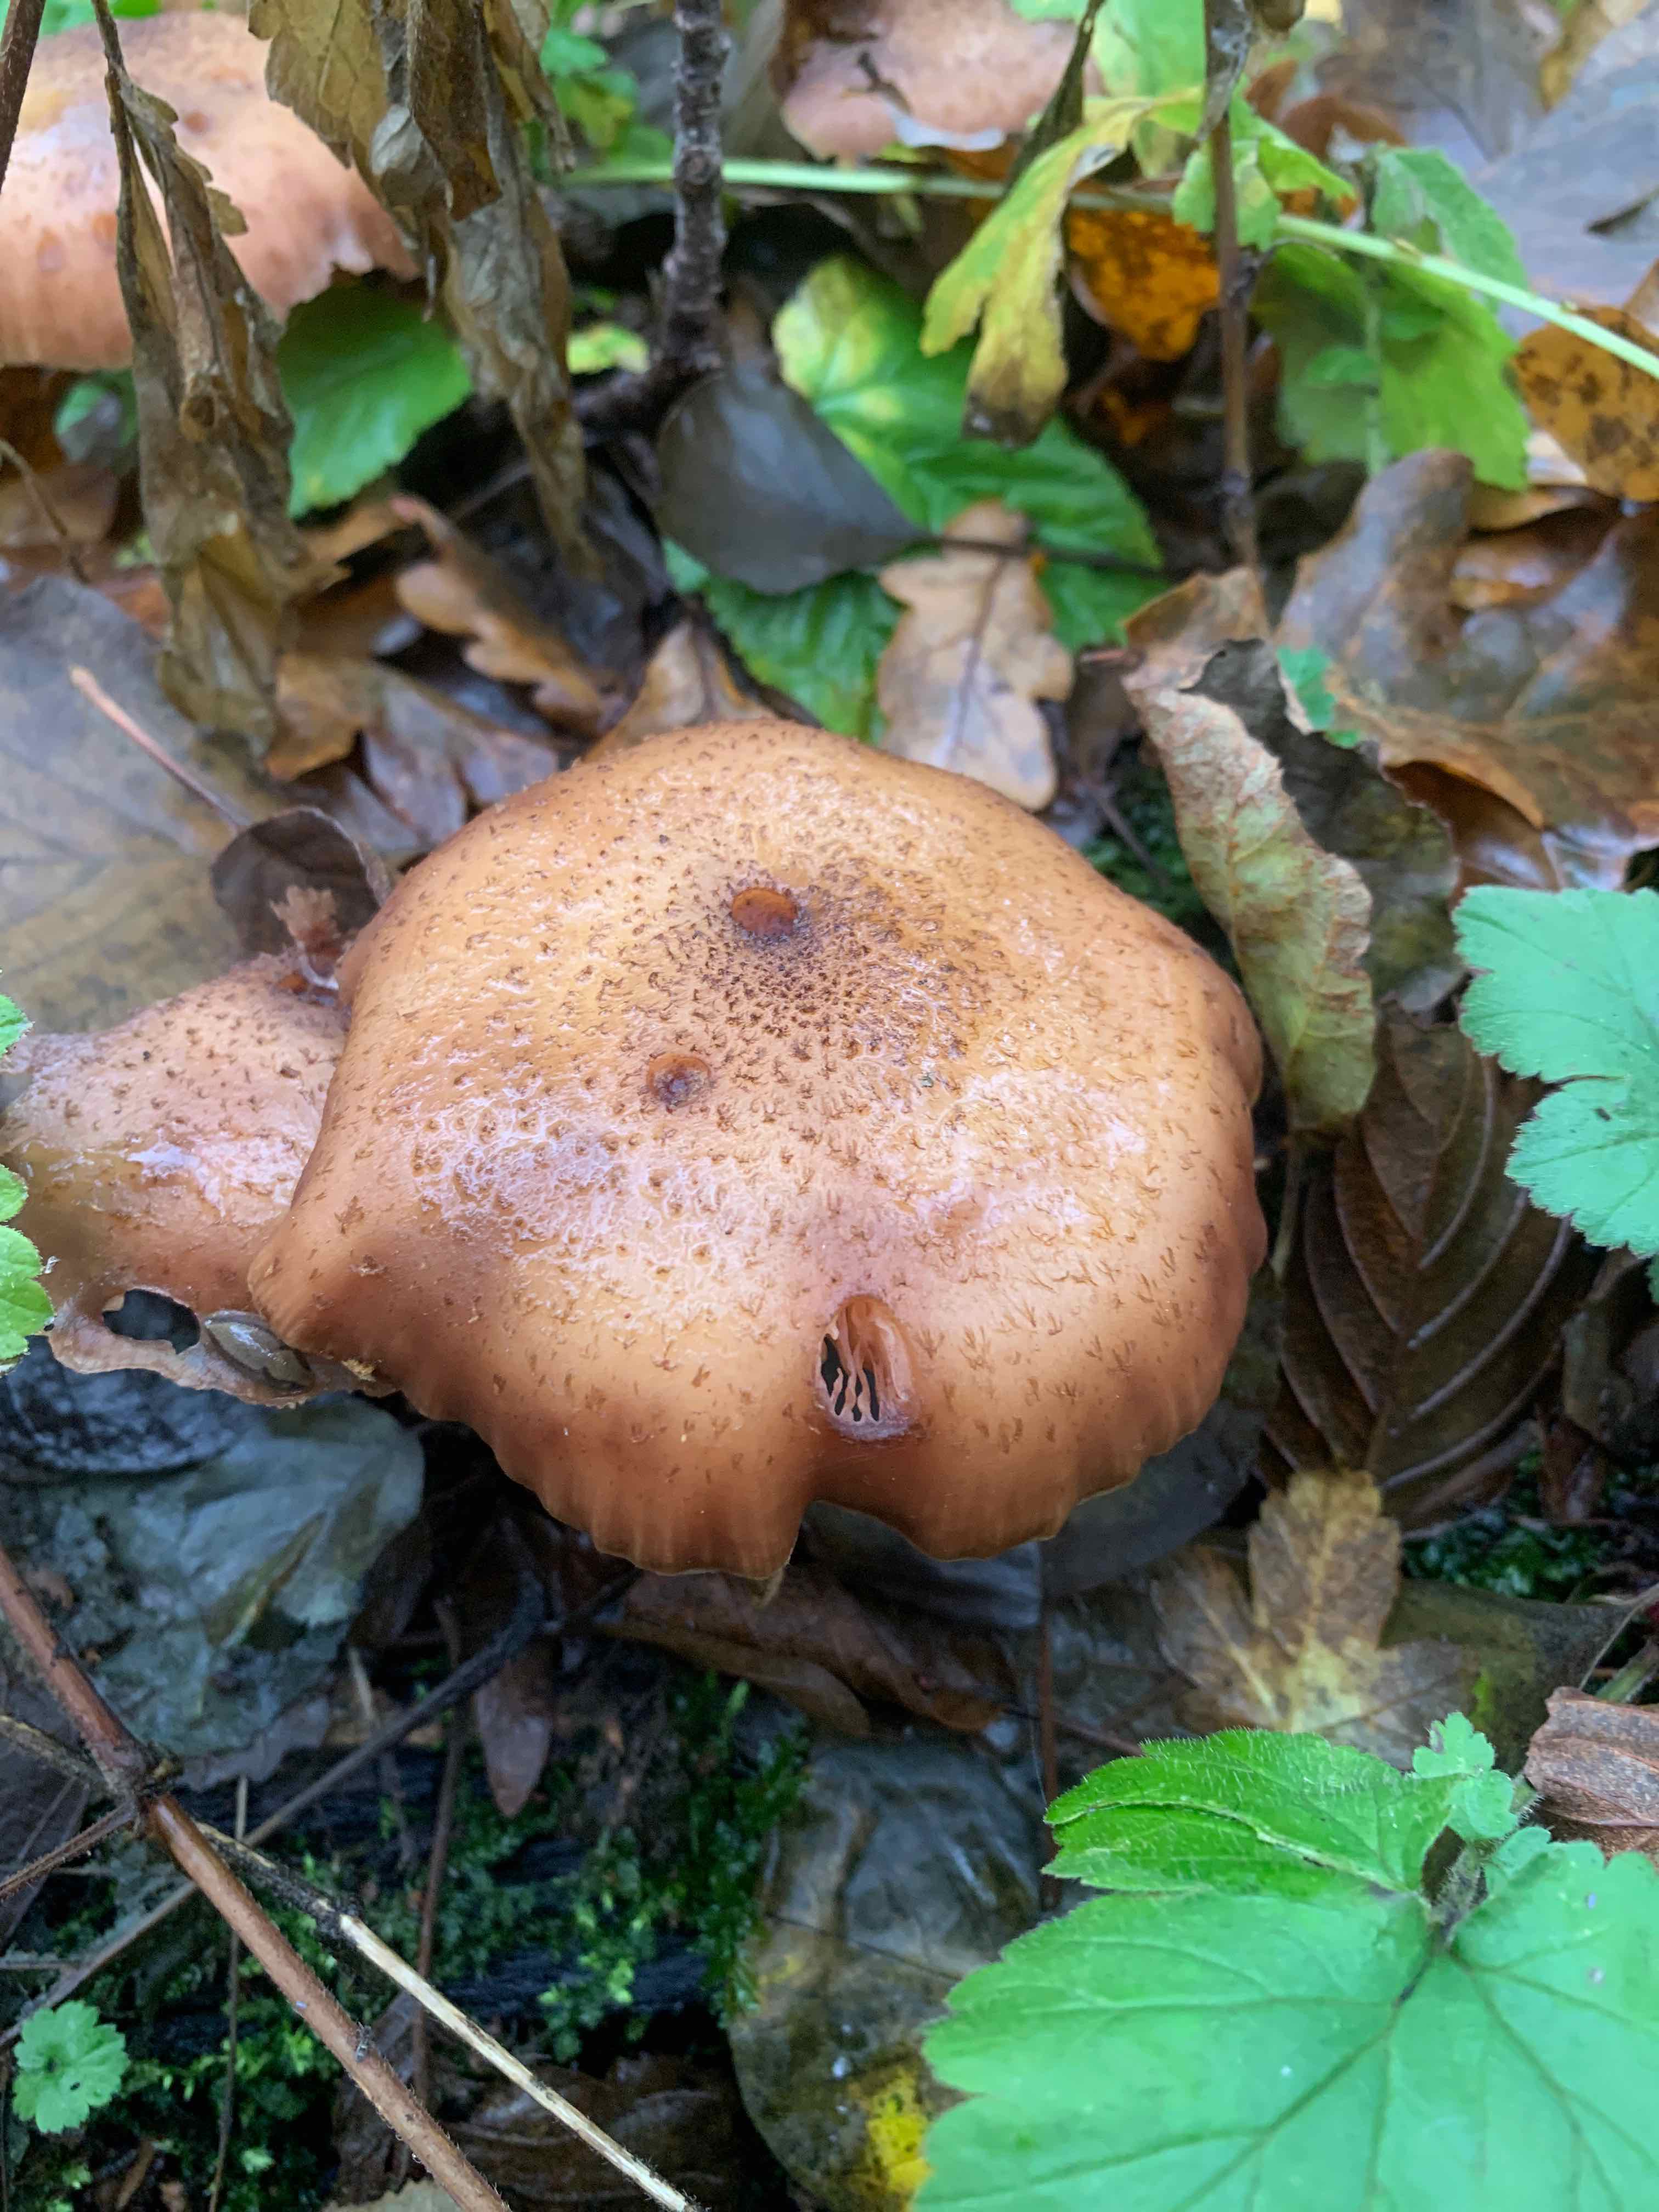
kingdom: Fungi
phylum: Basidiomycota
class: Agaricomycetes
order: Agaricales
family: Physalacriaceae
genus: Armillaria
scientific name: Armillaria lutea
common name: køllestokket honningsvamp
